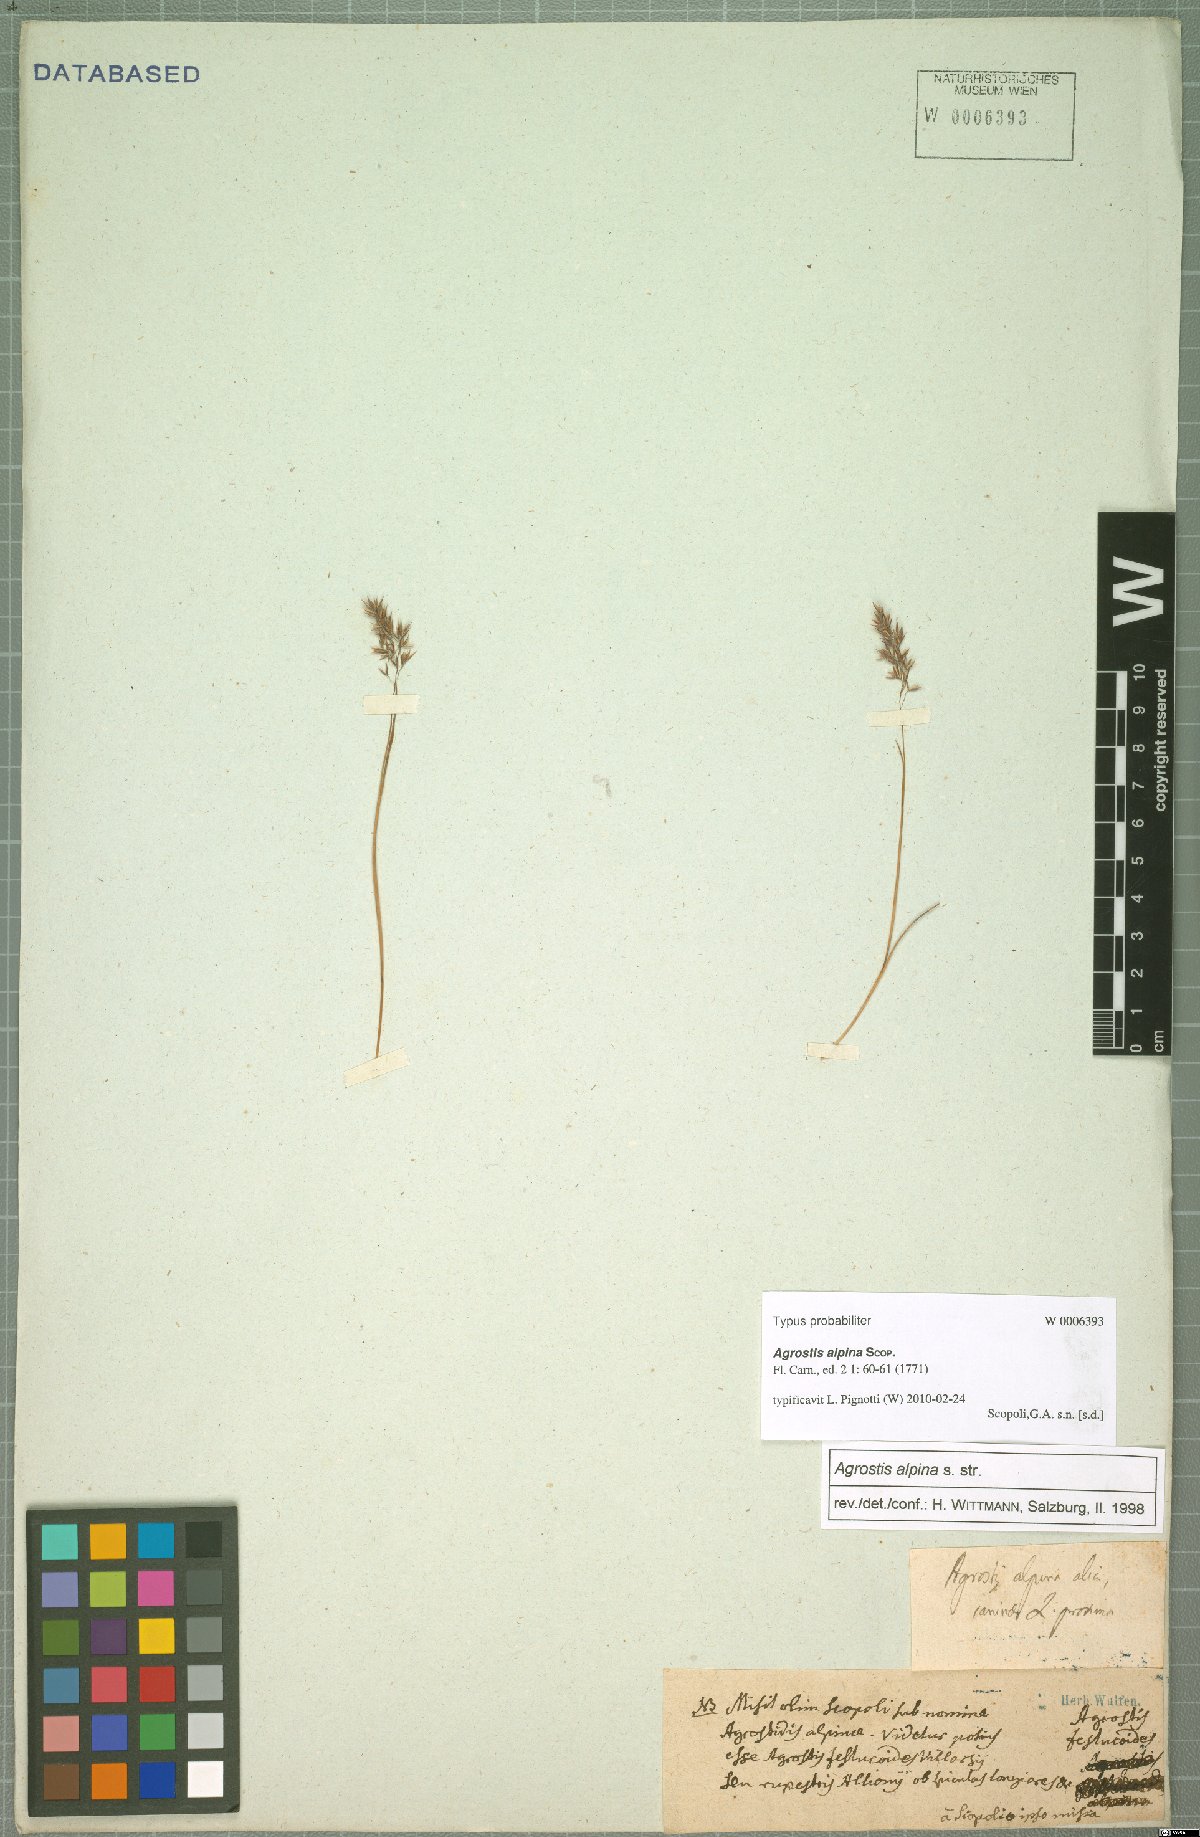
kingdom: Plantae
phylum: Tracheophyta
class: Liliopsida
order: Poales
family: Poaceae
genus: Alpagrostis
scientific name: Alpagrostis alpina
